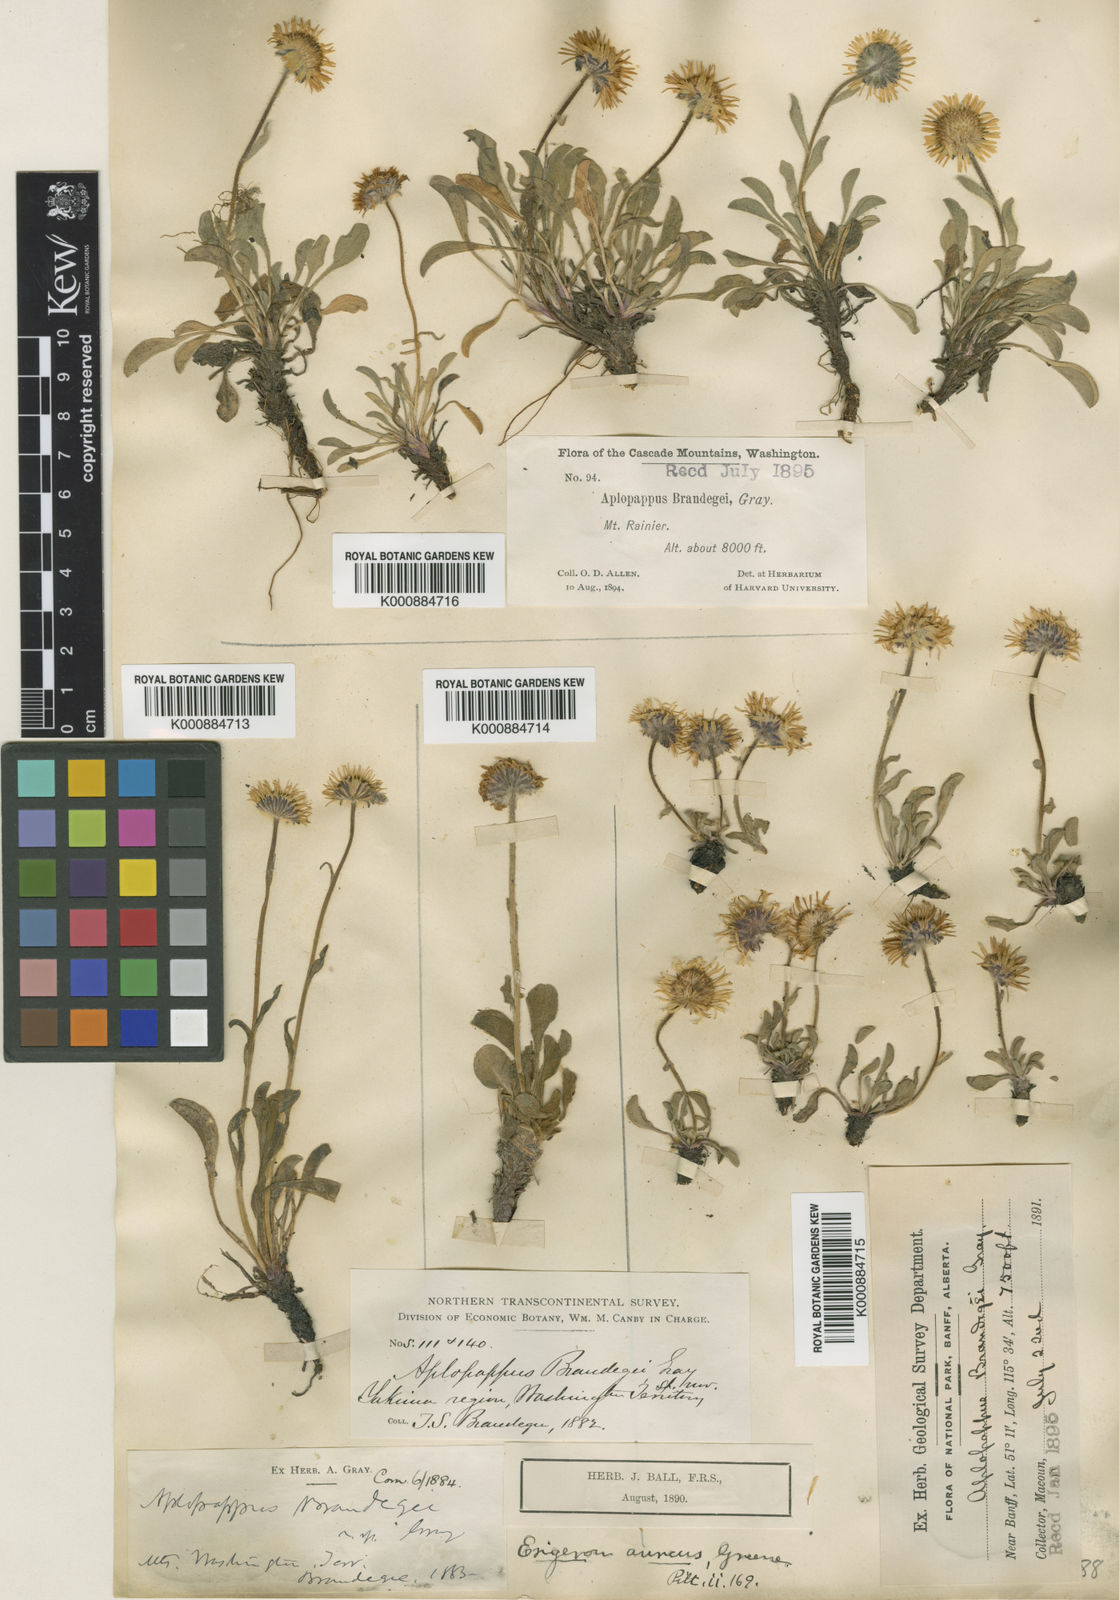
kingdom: Plantae
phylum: Tracheophyta
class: Magnoliopsida
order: Asterales
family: Asteraceae
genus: Haplopappus
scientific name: Haplopappus
